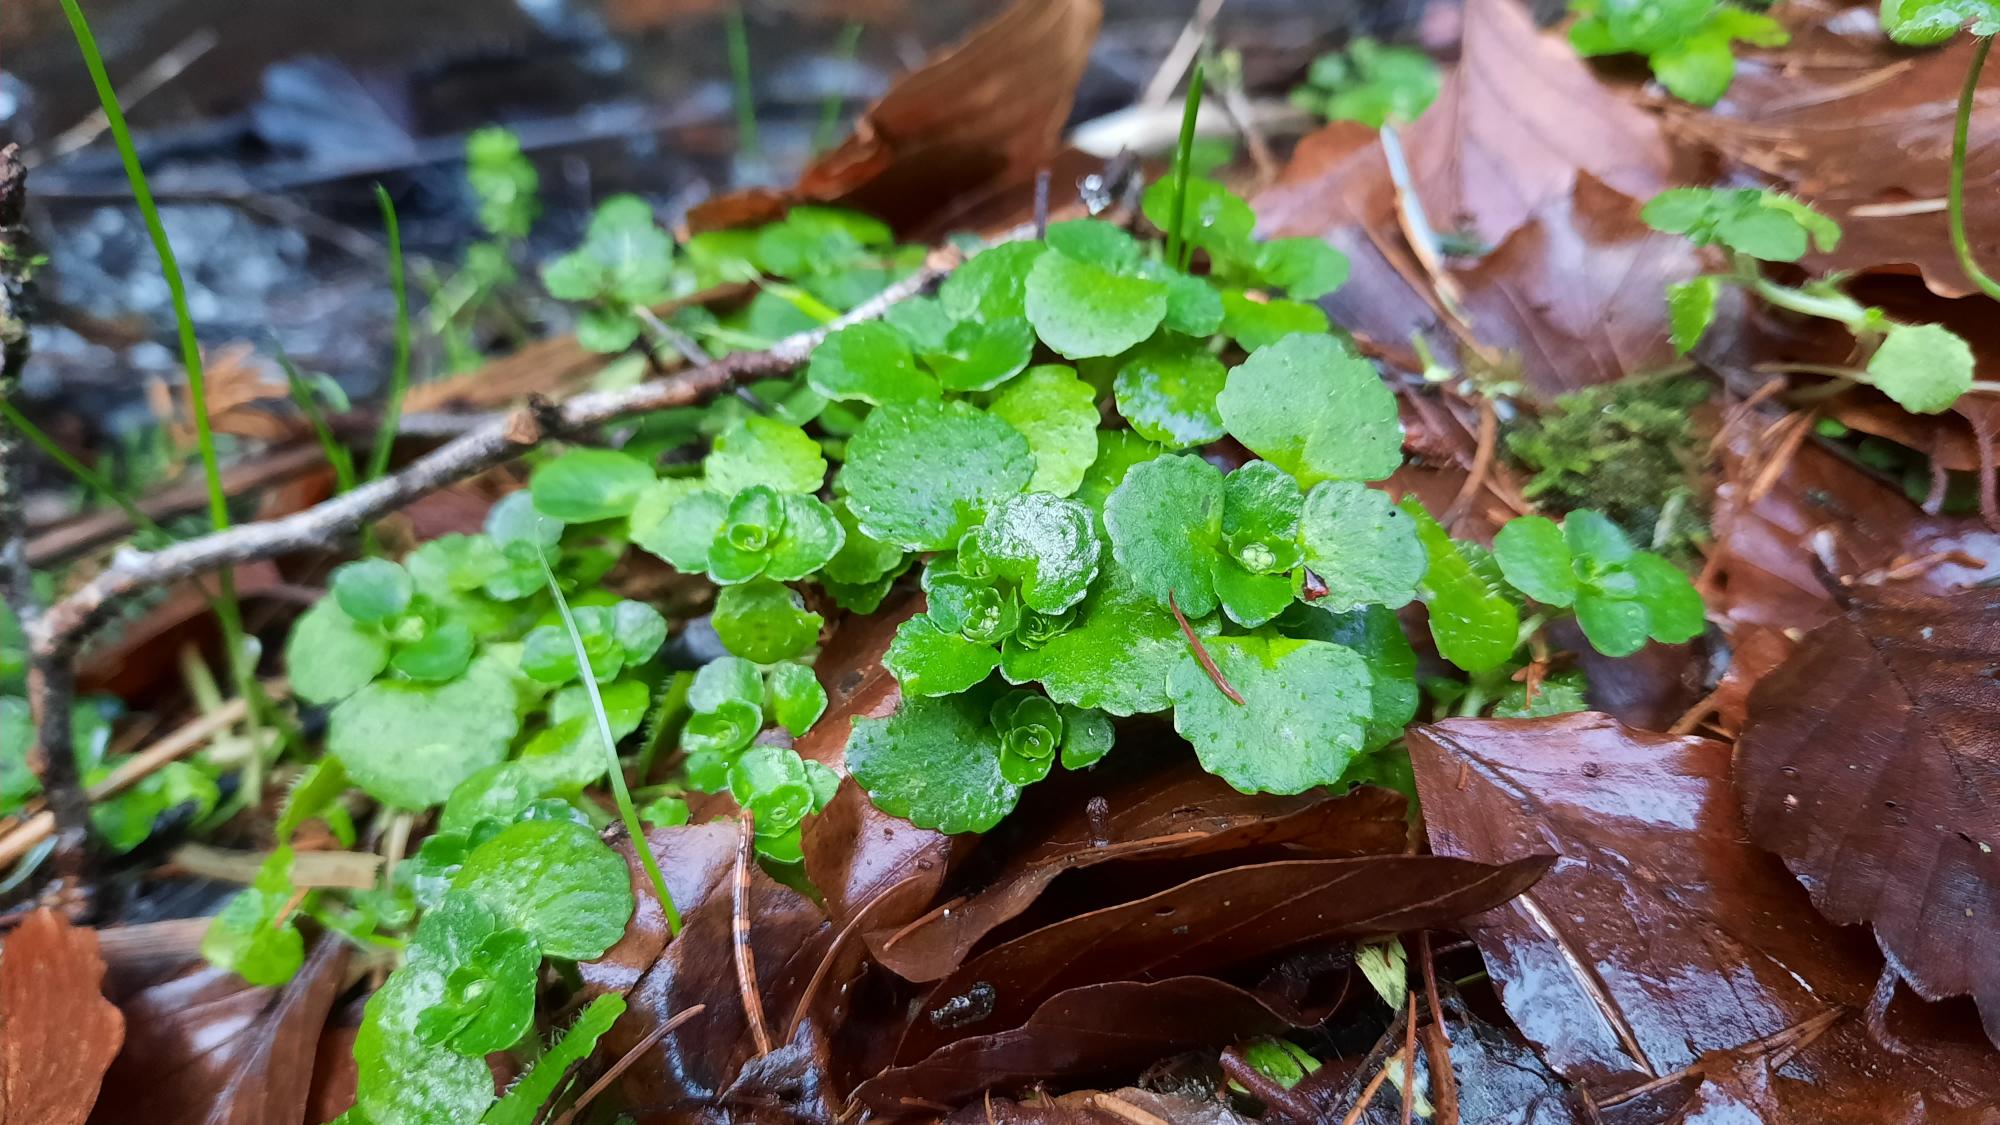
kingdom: Plantae
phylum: Tracheophyta
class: Magnoliopsida
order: Saxifragales
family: Saxifragaceae
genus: Chrysosplenium
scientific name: Chrysosplenium oppositifolium
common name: Småbladet milturt
